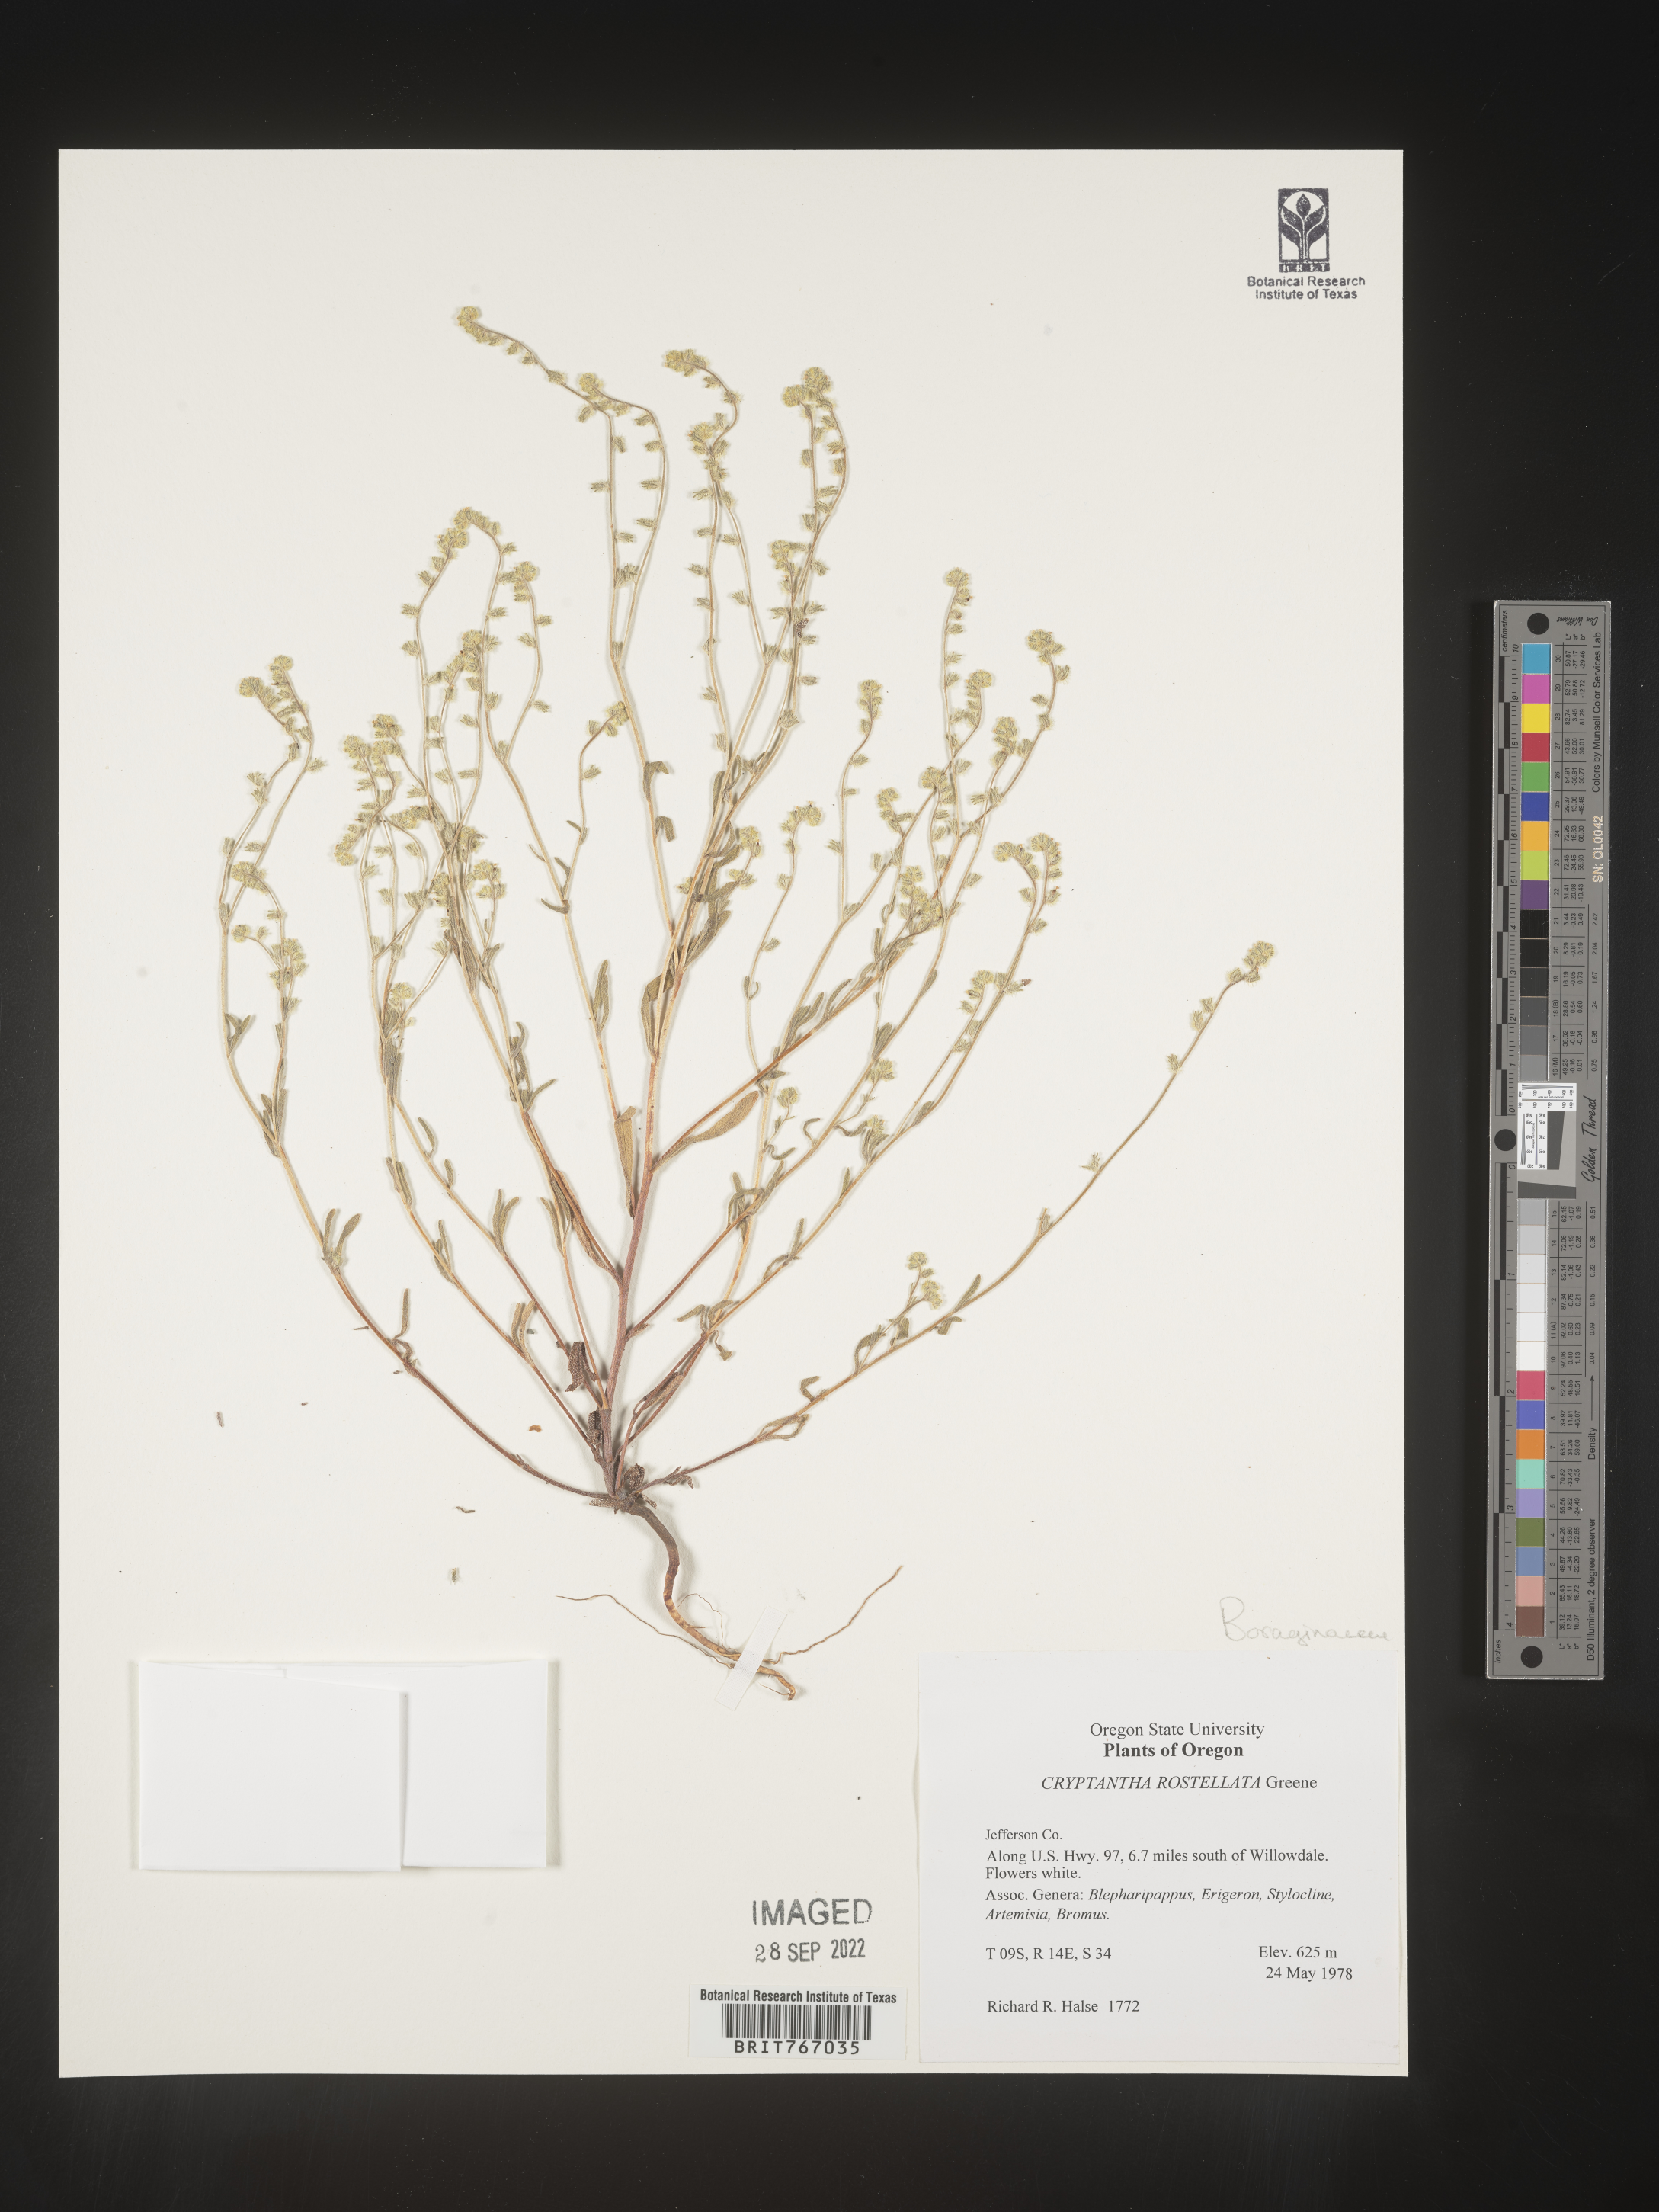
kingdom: Plantae
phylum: Tracheophyta
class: Magnoliopsida
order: Boraginales
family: Boraginaceae
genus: Cryptantha
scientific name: Cryptantha
